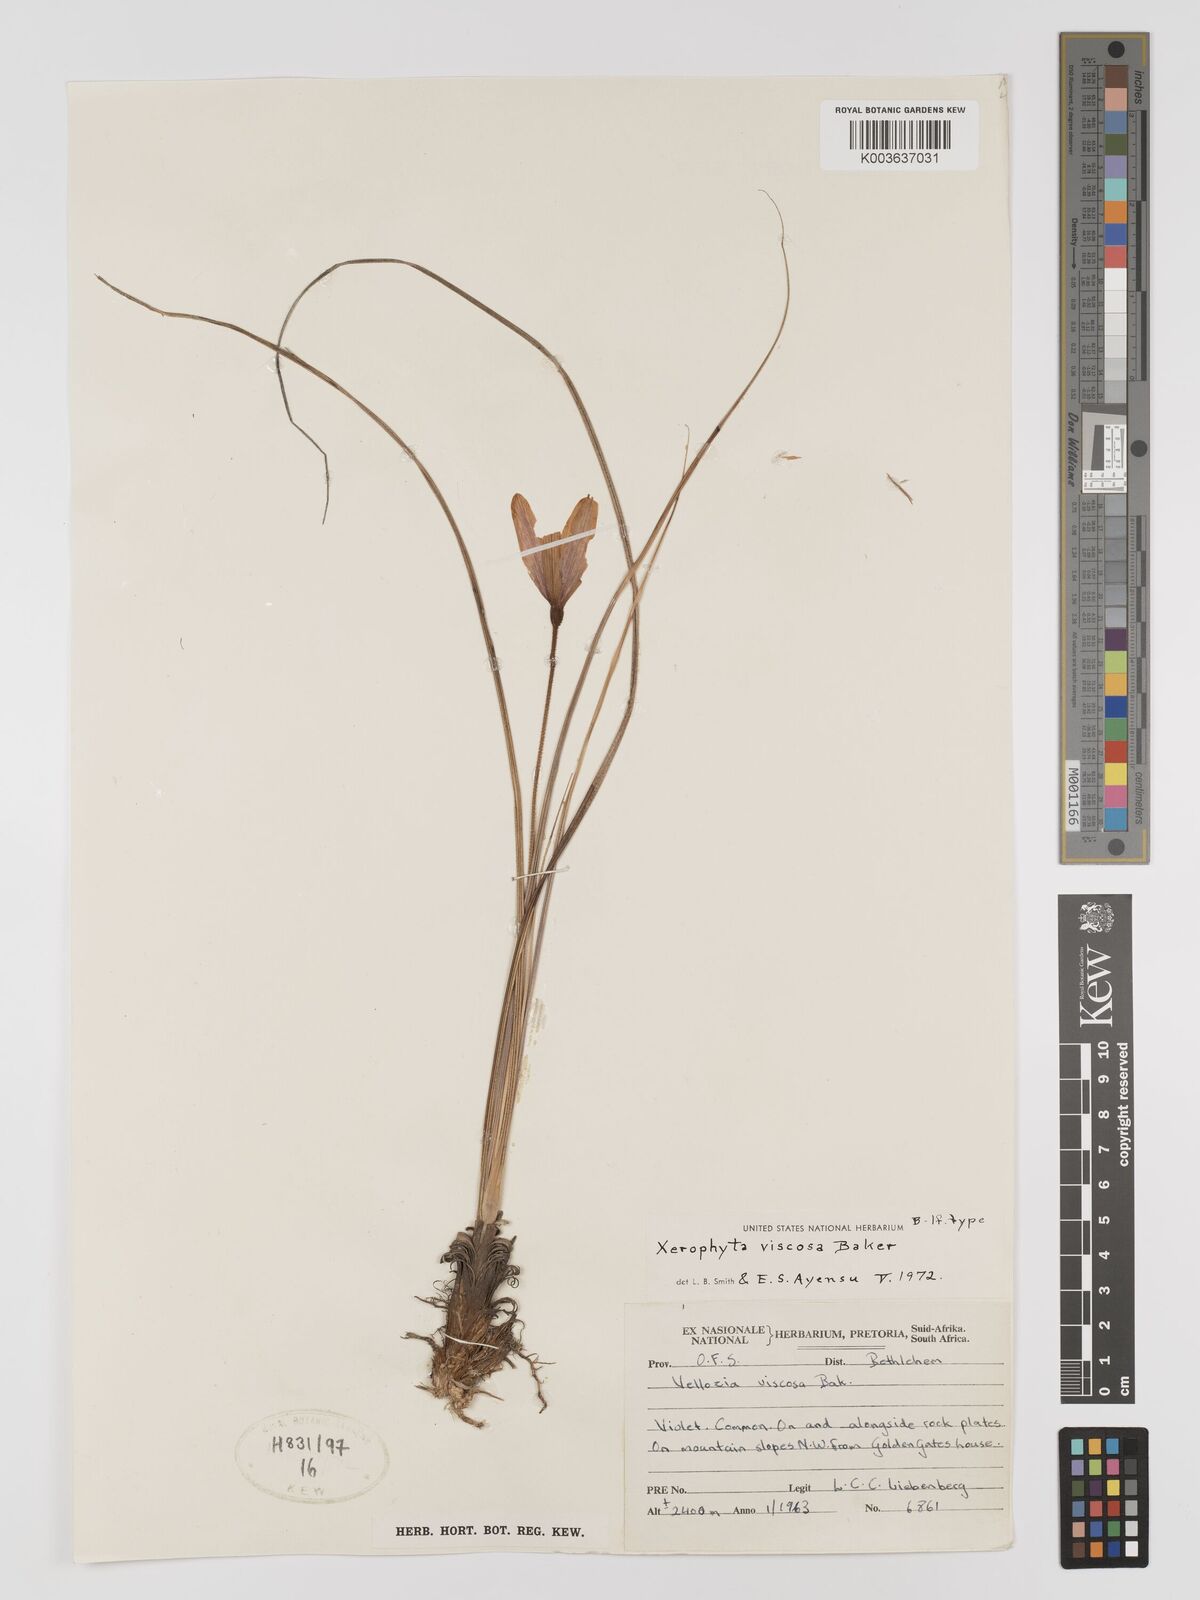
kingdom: Plantae
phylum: Tracheophyta
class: Liliopsida
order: Pandanales
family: Velloziaceae
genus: Xerophyta
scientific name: Xerophyta viscosa
